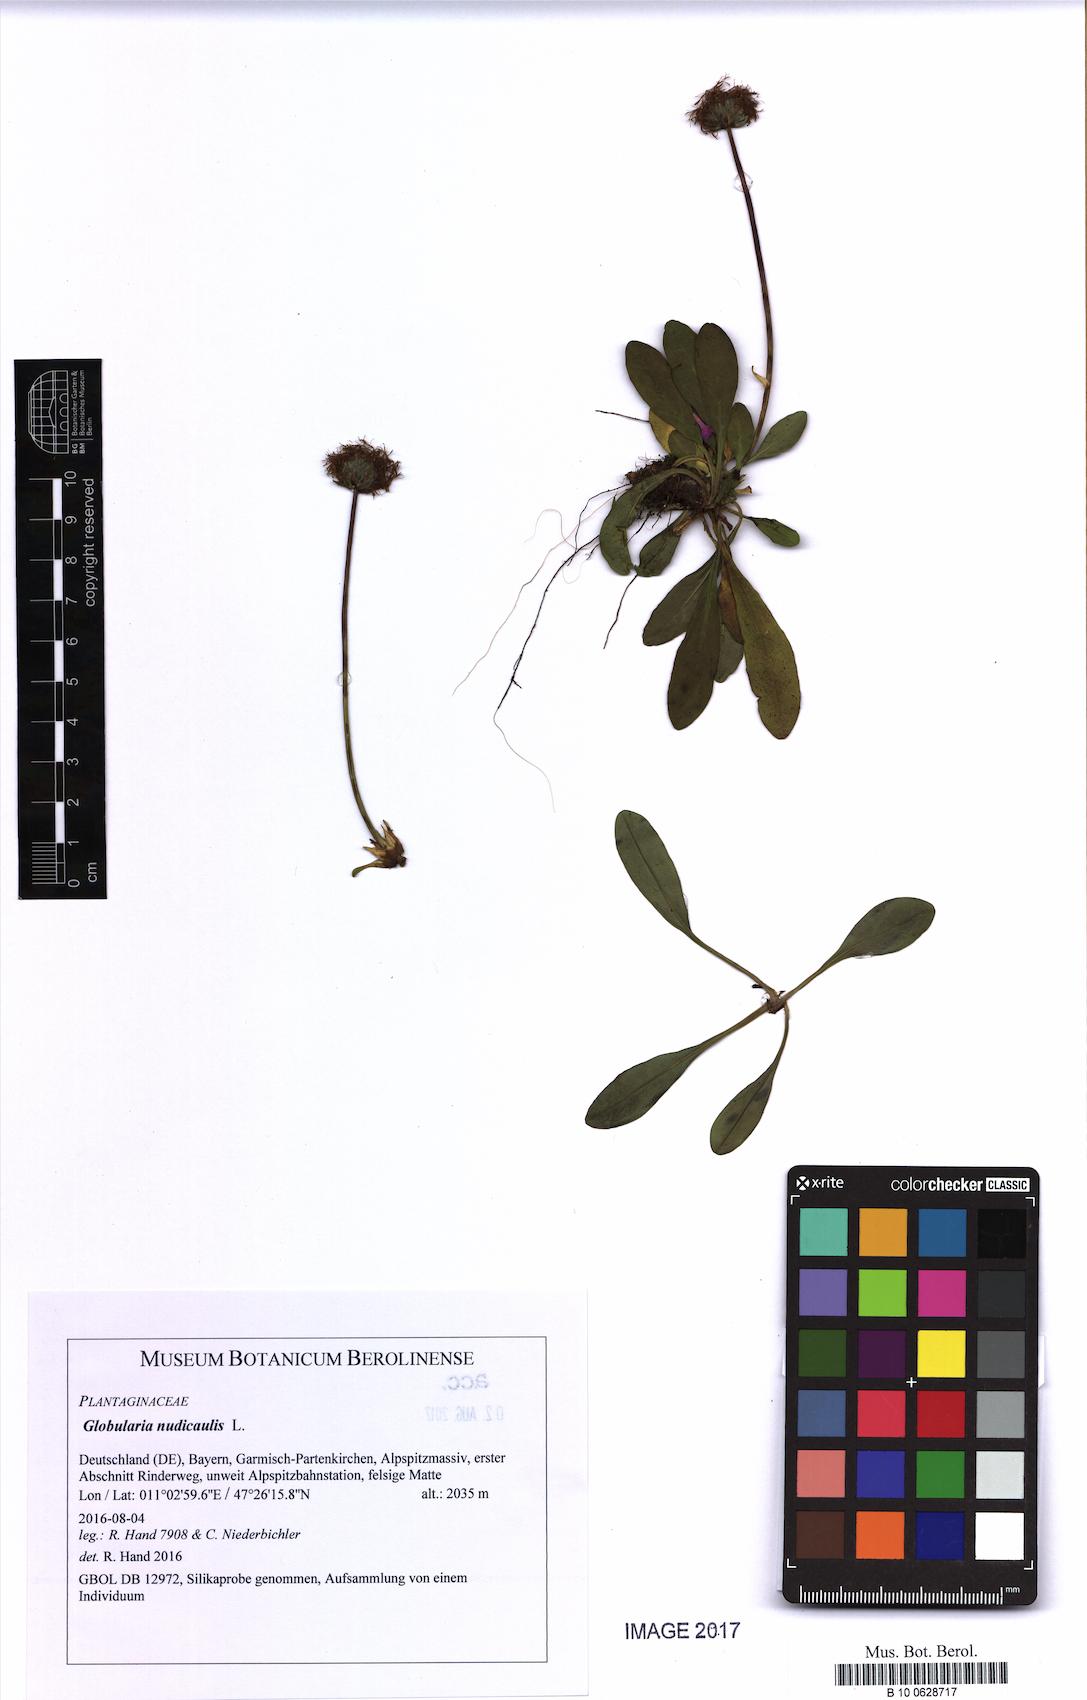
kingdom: Plantae
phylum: Tracheophyta
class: Magnoliopsida
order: Lamiales
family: Plantaginaceae
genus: Globularia
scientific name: Globularia nudicaulis
